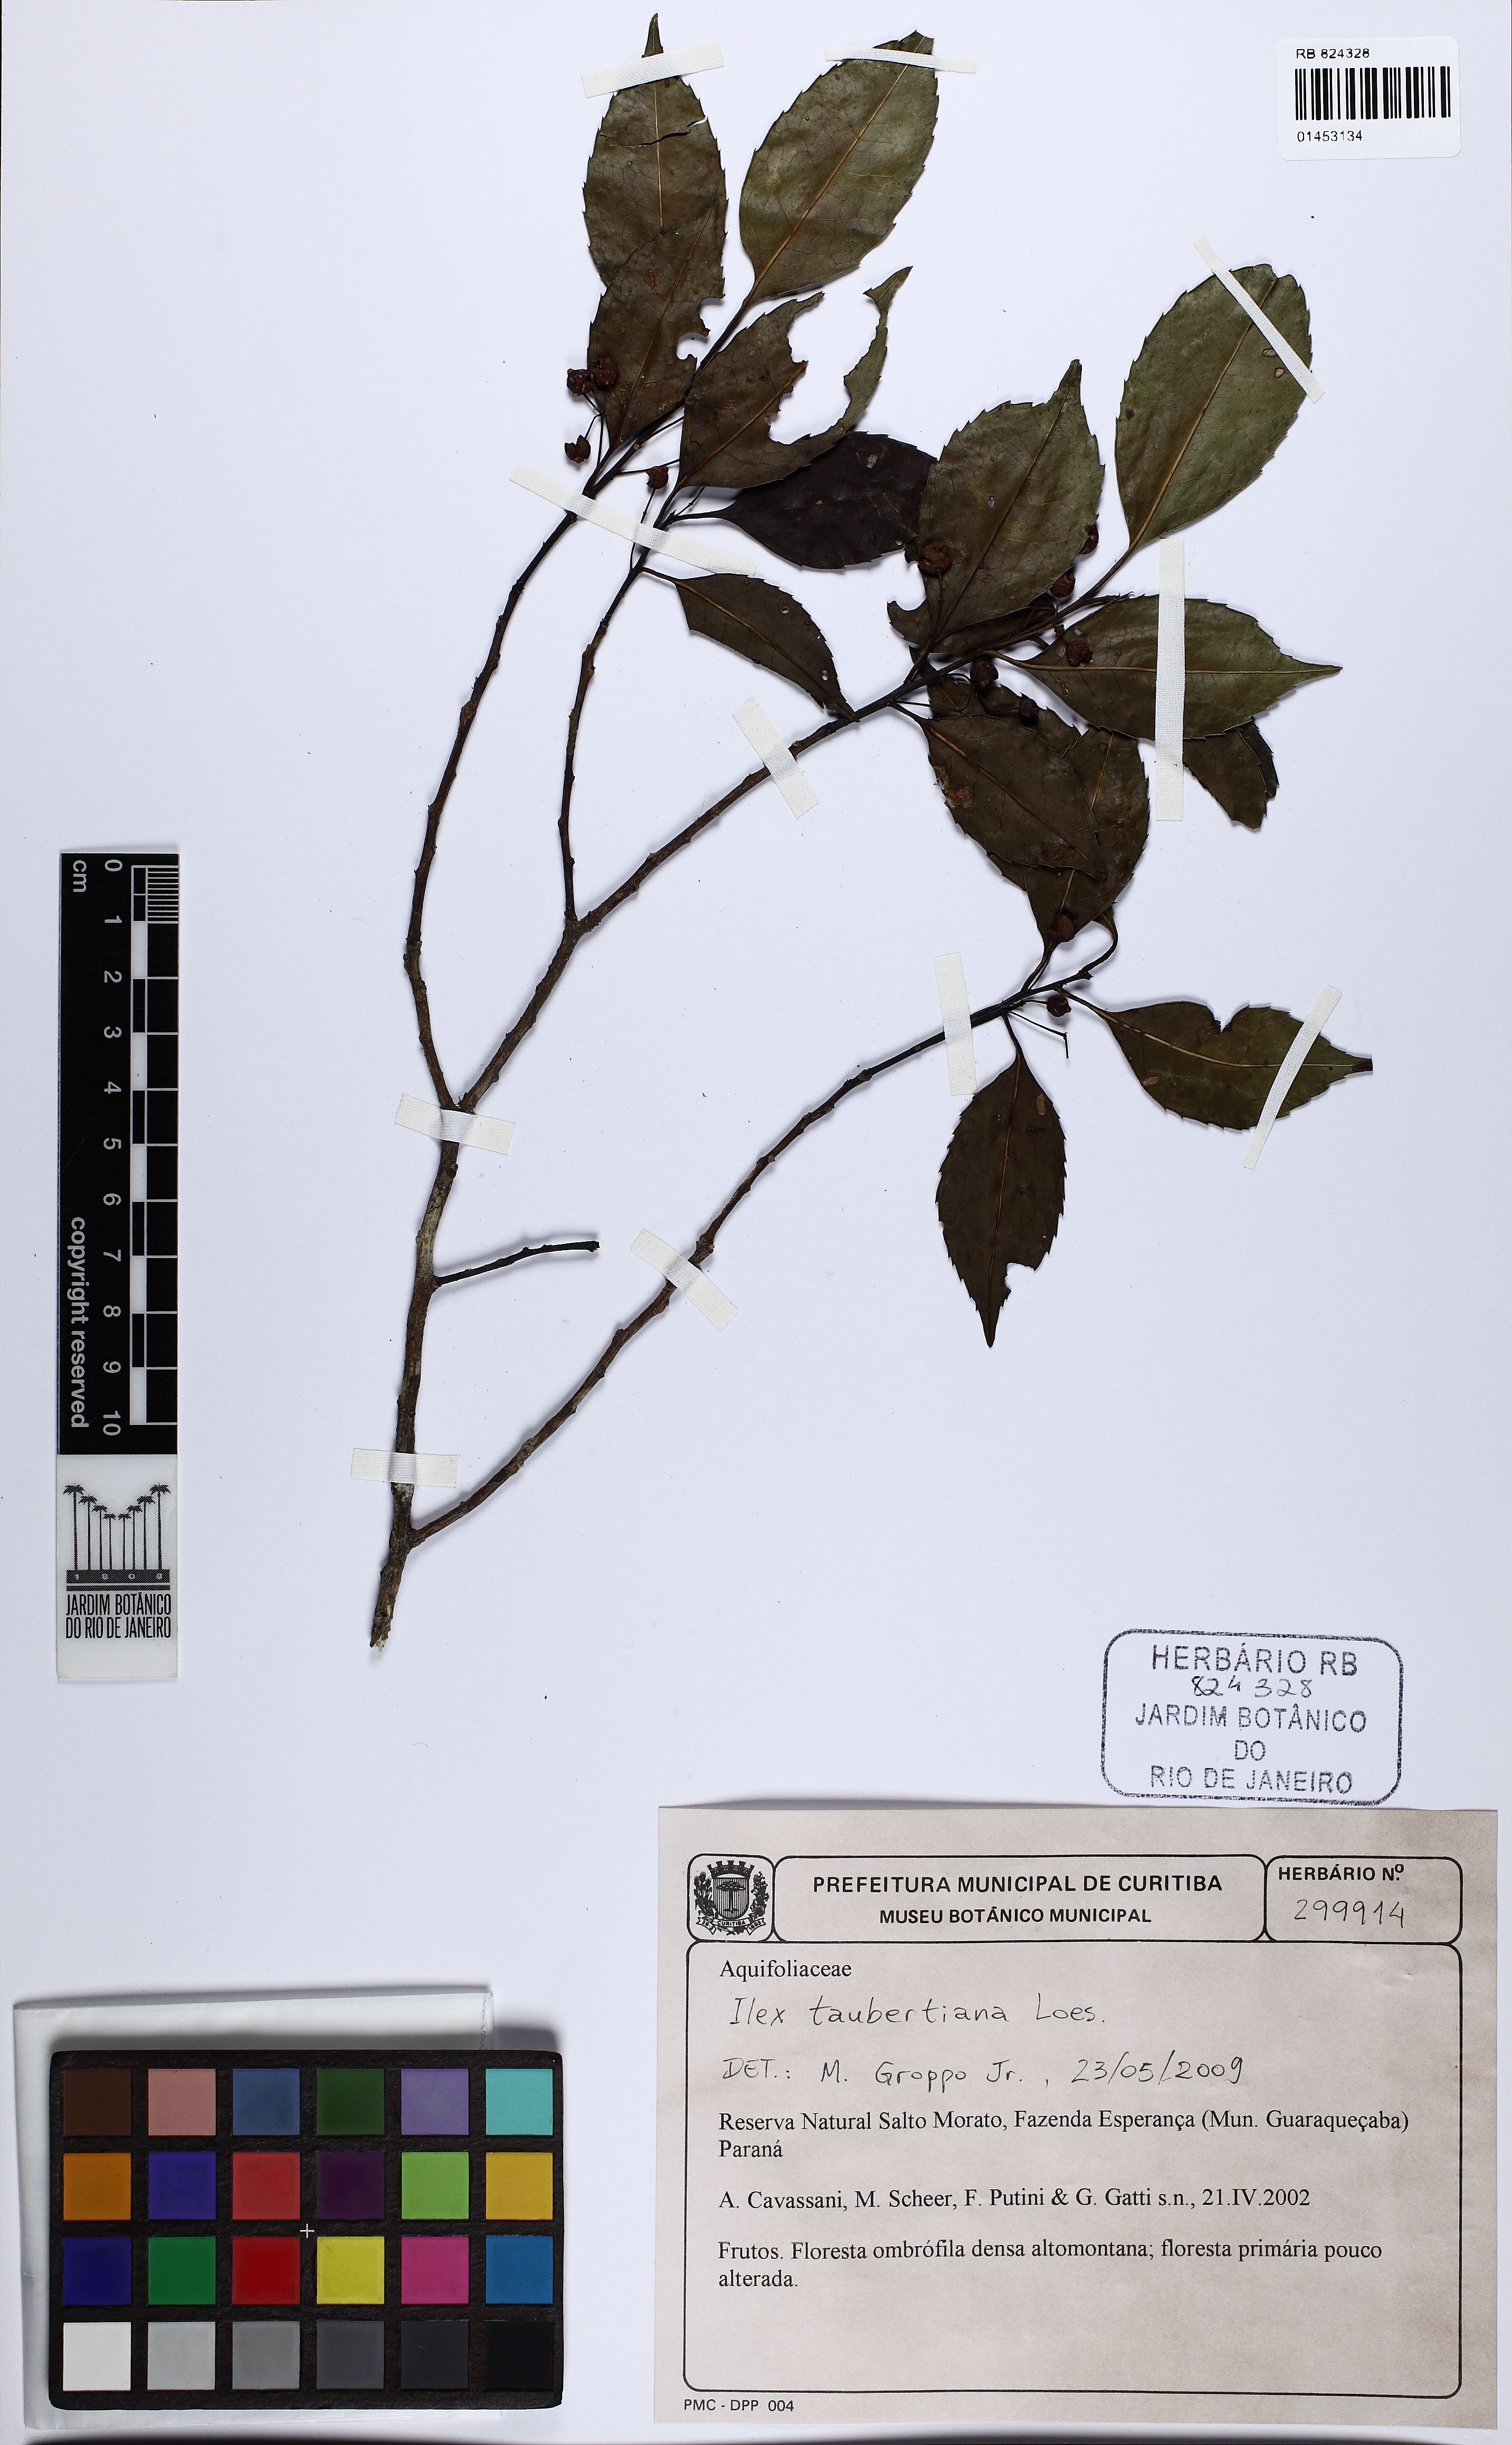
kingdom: Plantae
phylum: Tracheophyta
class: Magnoliopsida
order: Aquifoliales
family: Aquifoliaceae
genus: Ilex
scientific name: Ilex taubertiana
